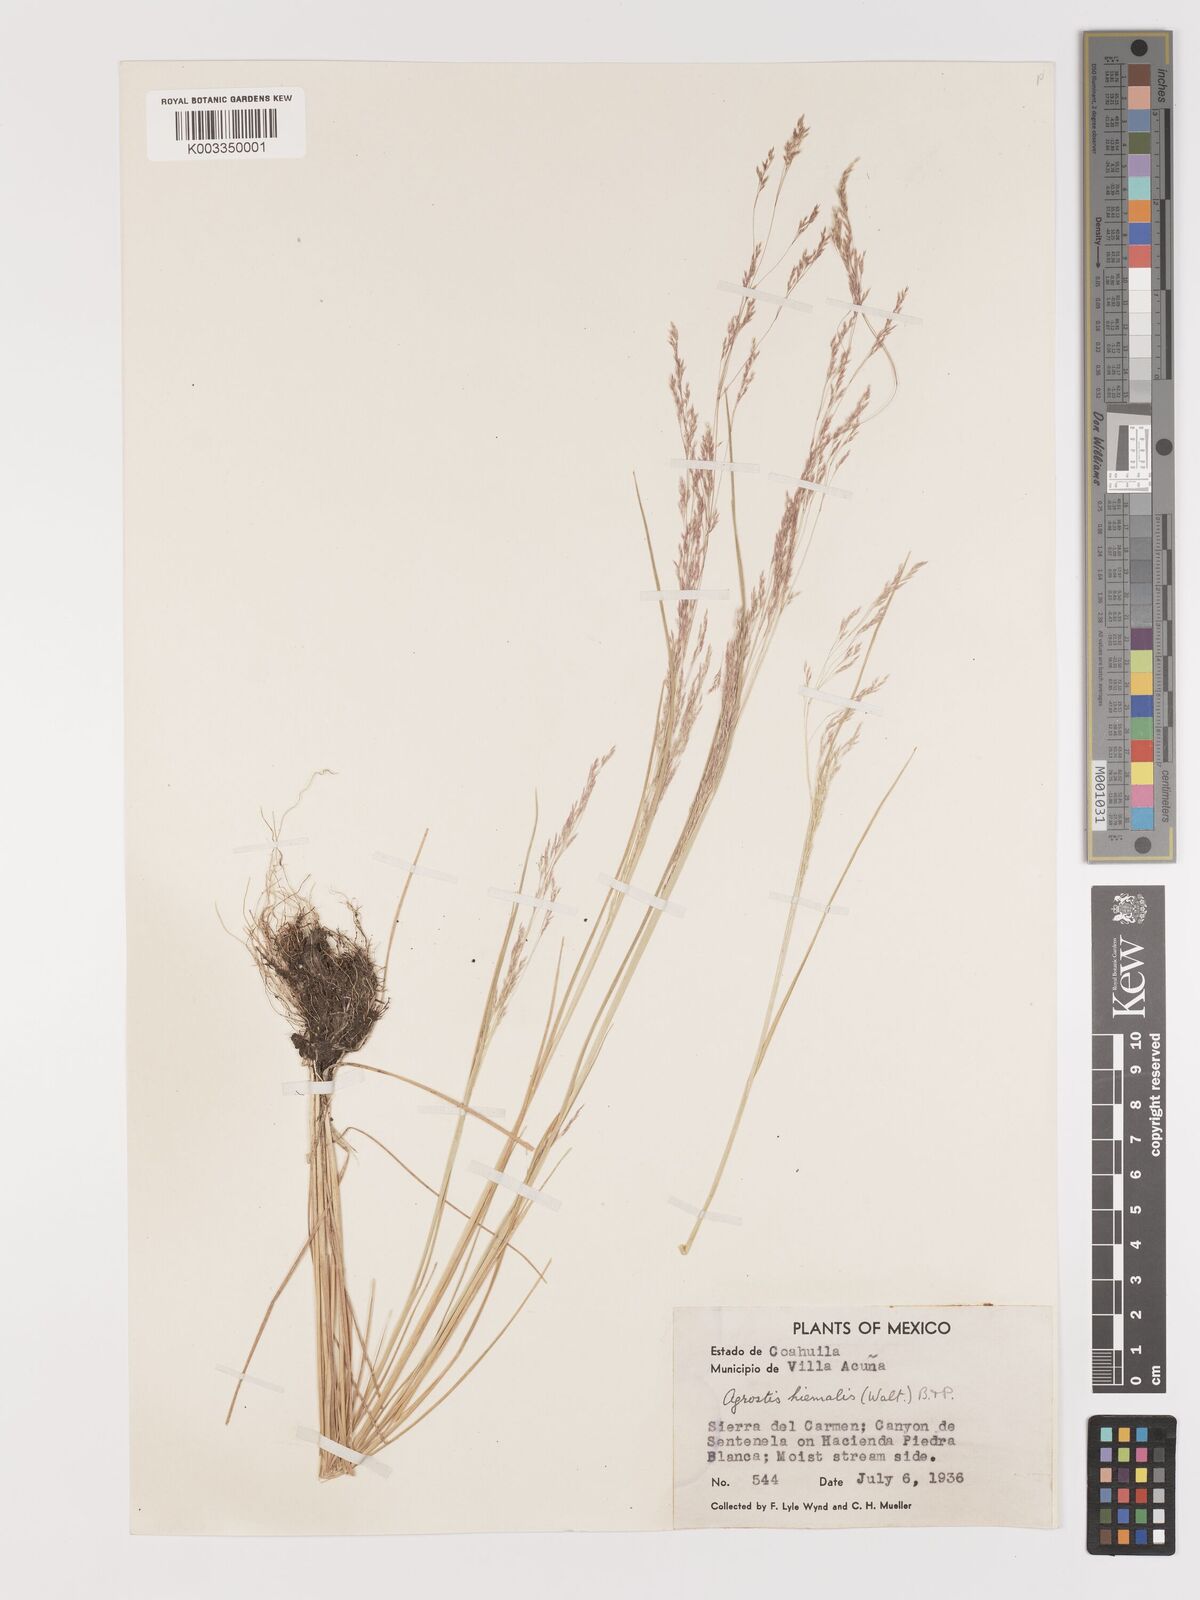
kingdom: Plantae
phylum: Tracheophyta
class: Liliopsida
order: Poales
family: Poaceae
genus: Agrostis
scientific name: Agrostis hyemalis
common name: Small bent
